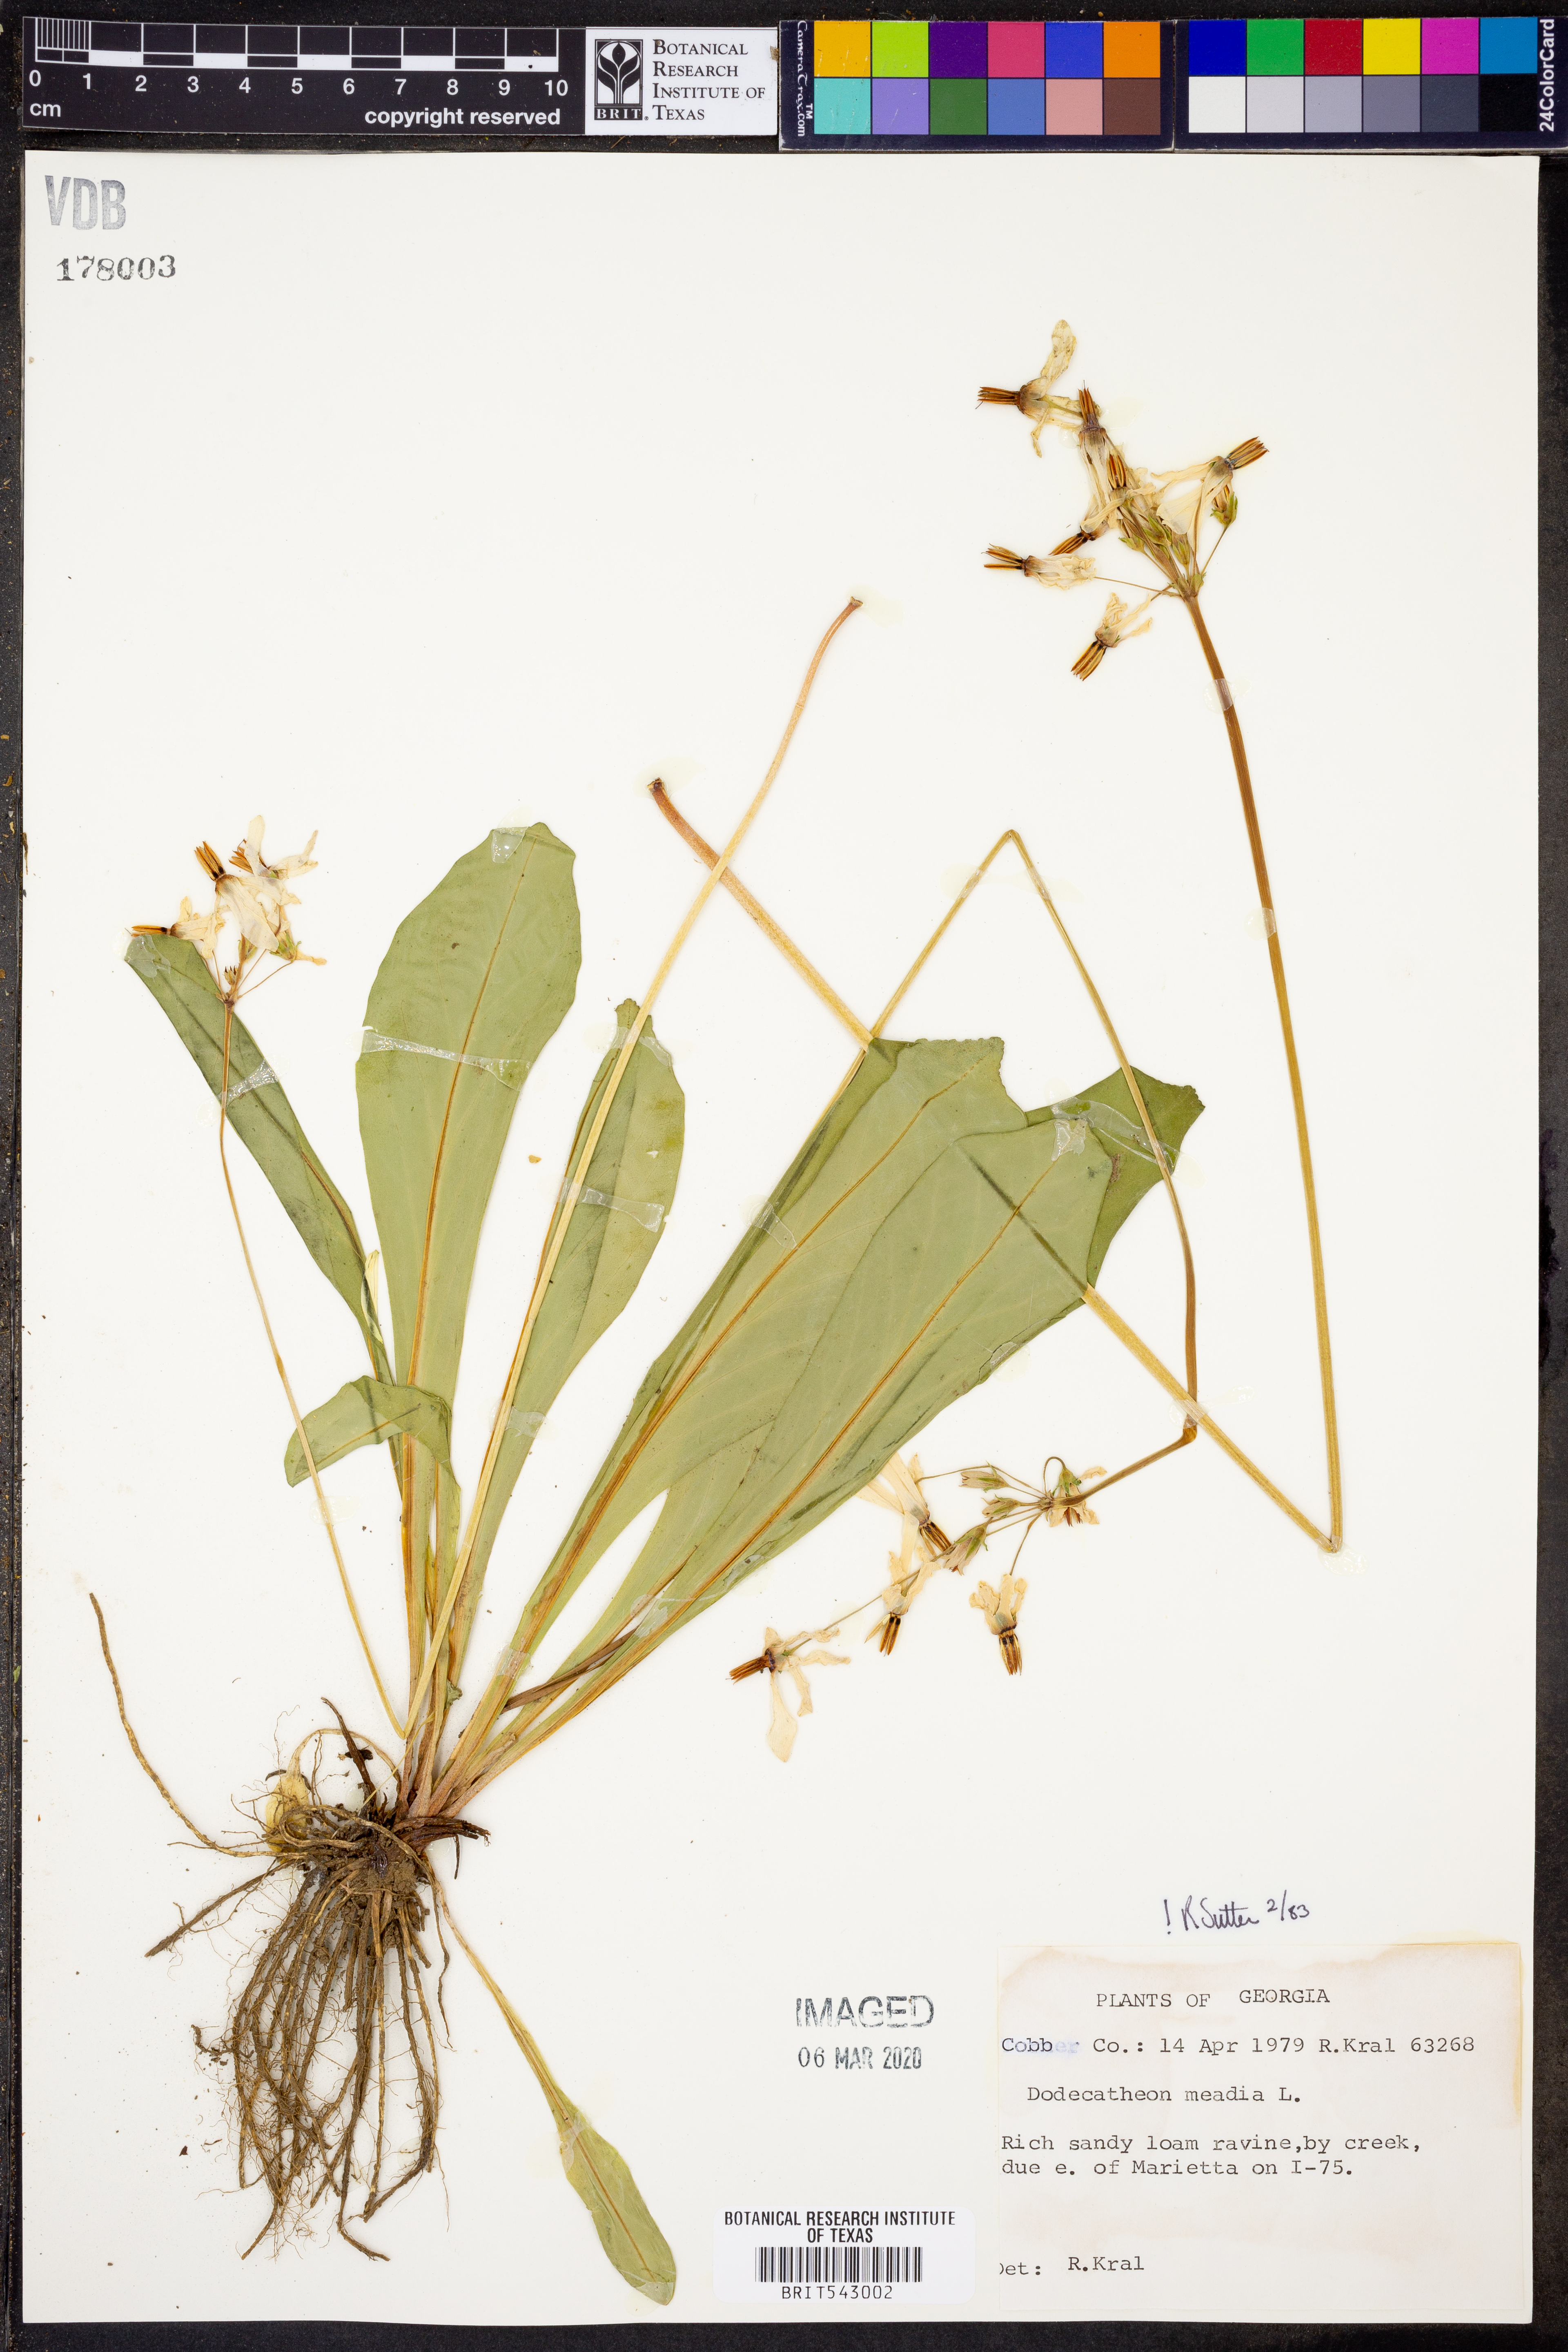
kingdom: Plantae
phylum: Tracheophyta
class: Magnoliopsida
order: Ericales
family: Primulaceae
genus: Dodecatheon
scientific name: Dodecatheon meadia
